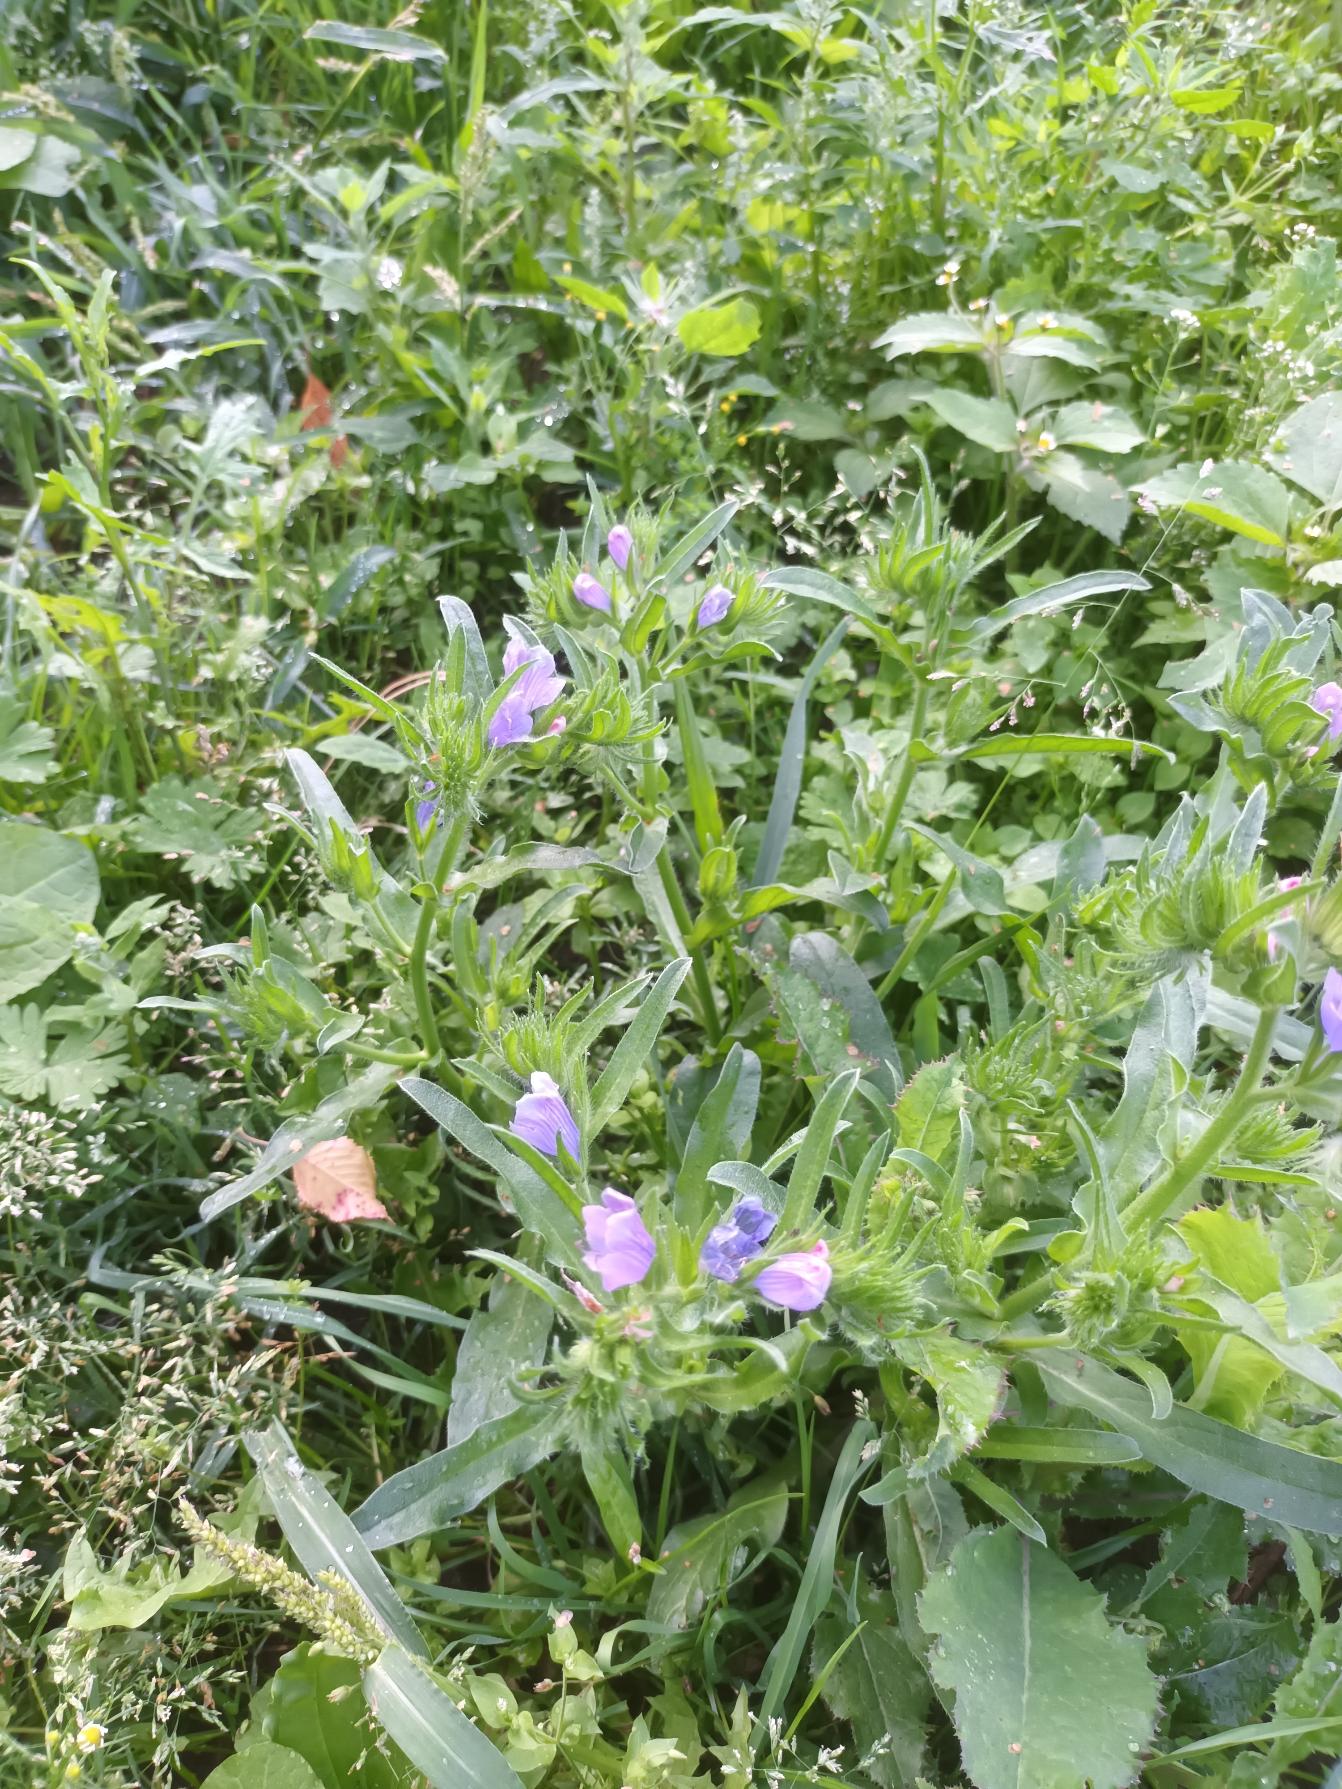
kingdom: Plantae
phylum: Tracheophyta
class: Magnoliopsida
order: Boraginales
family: Boraginaceae
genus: Echium
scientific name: Echium plantagineum
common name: Vejbred-slangehoved
